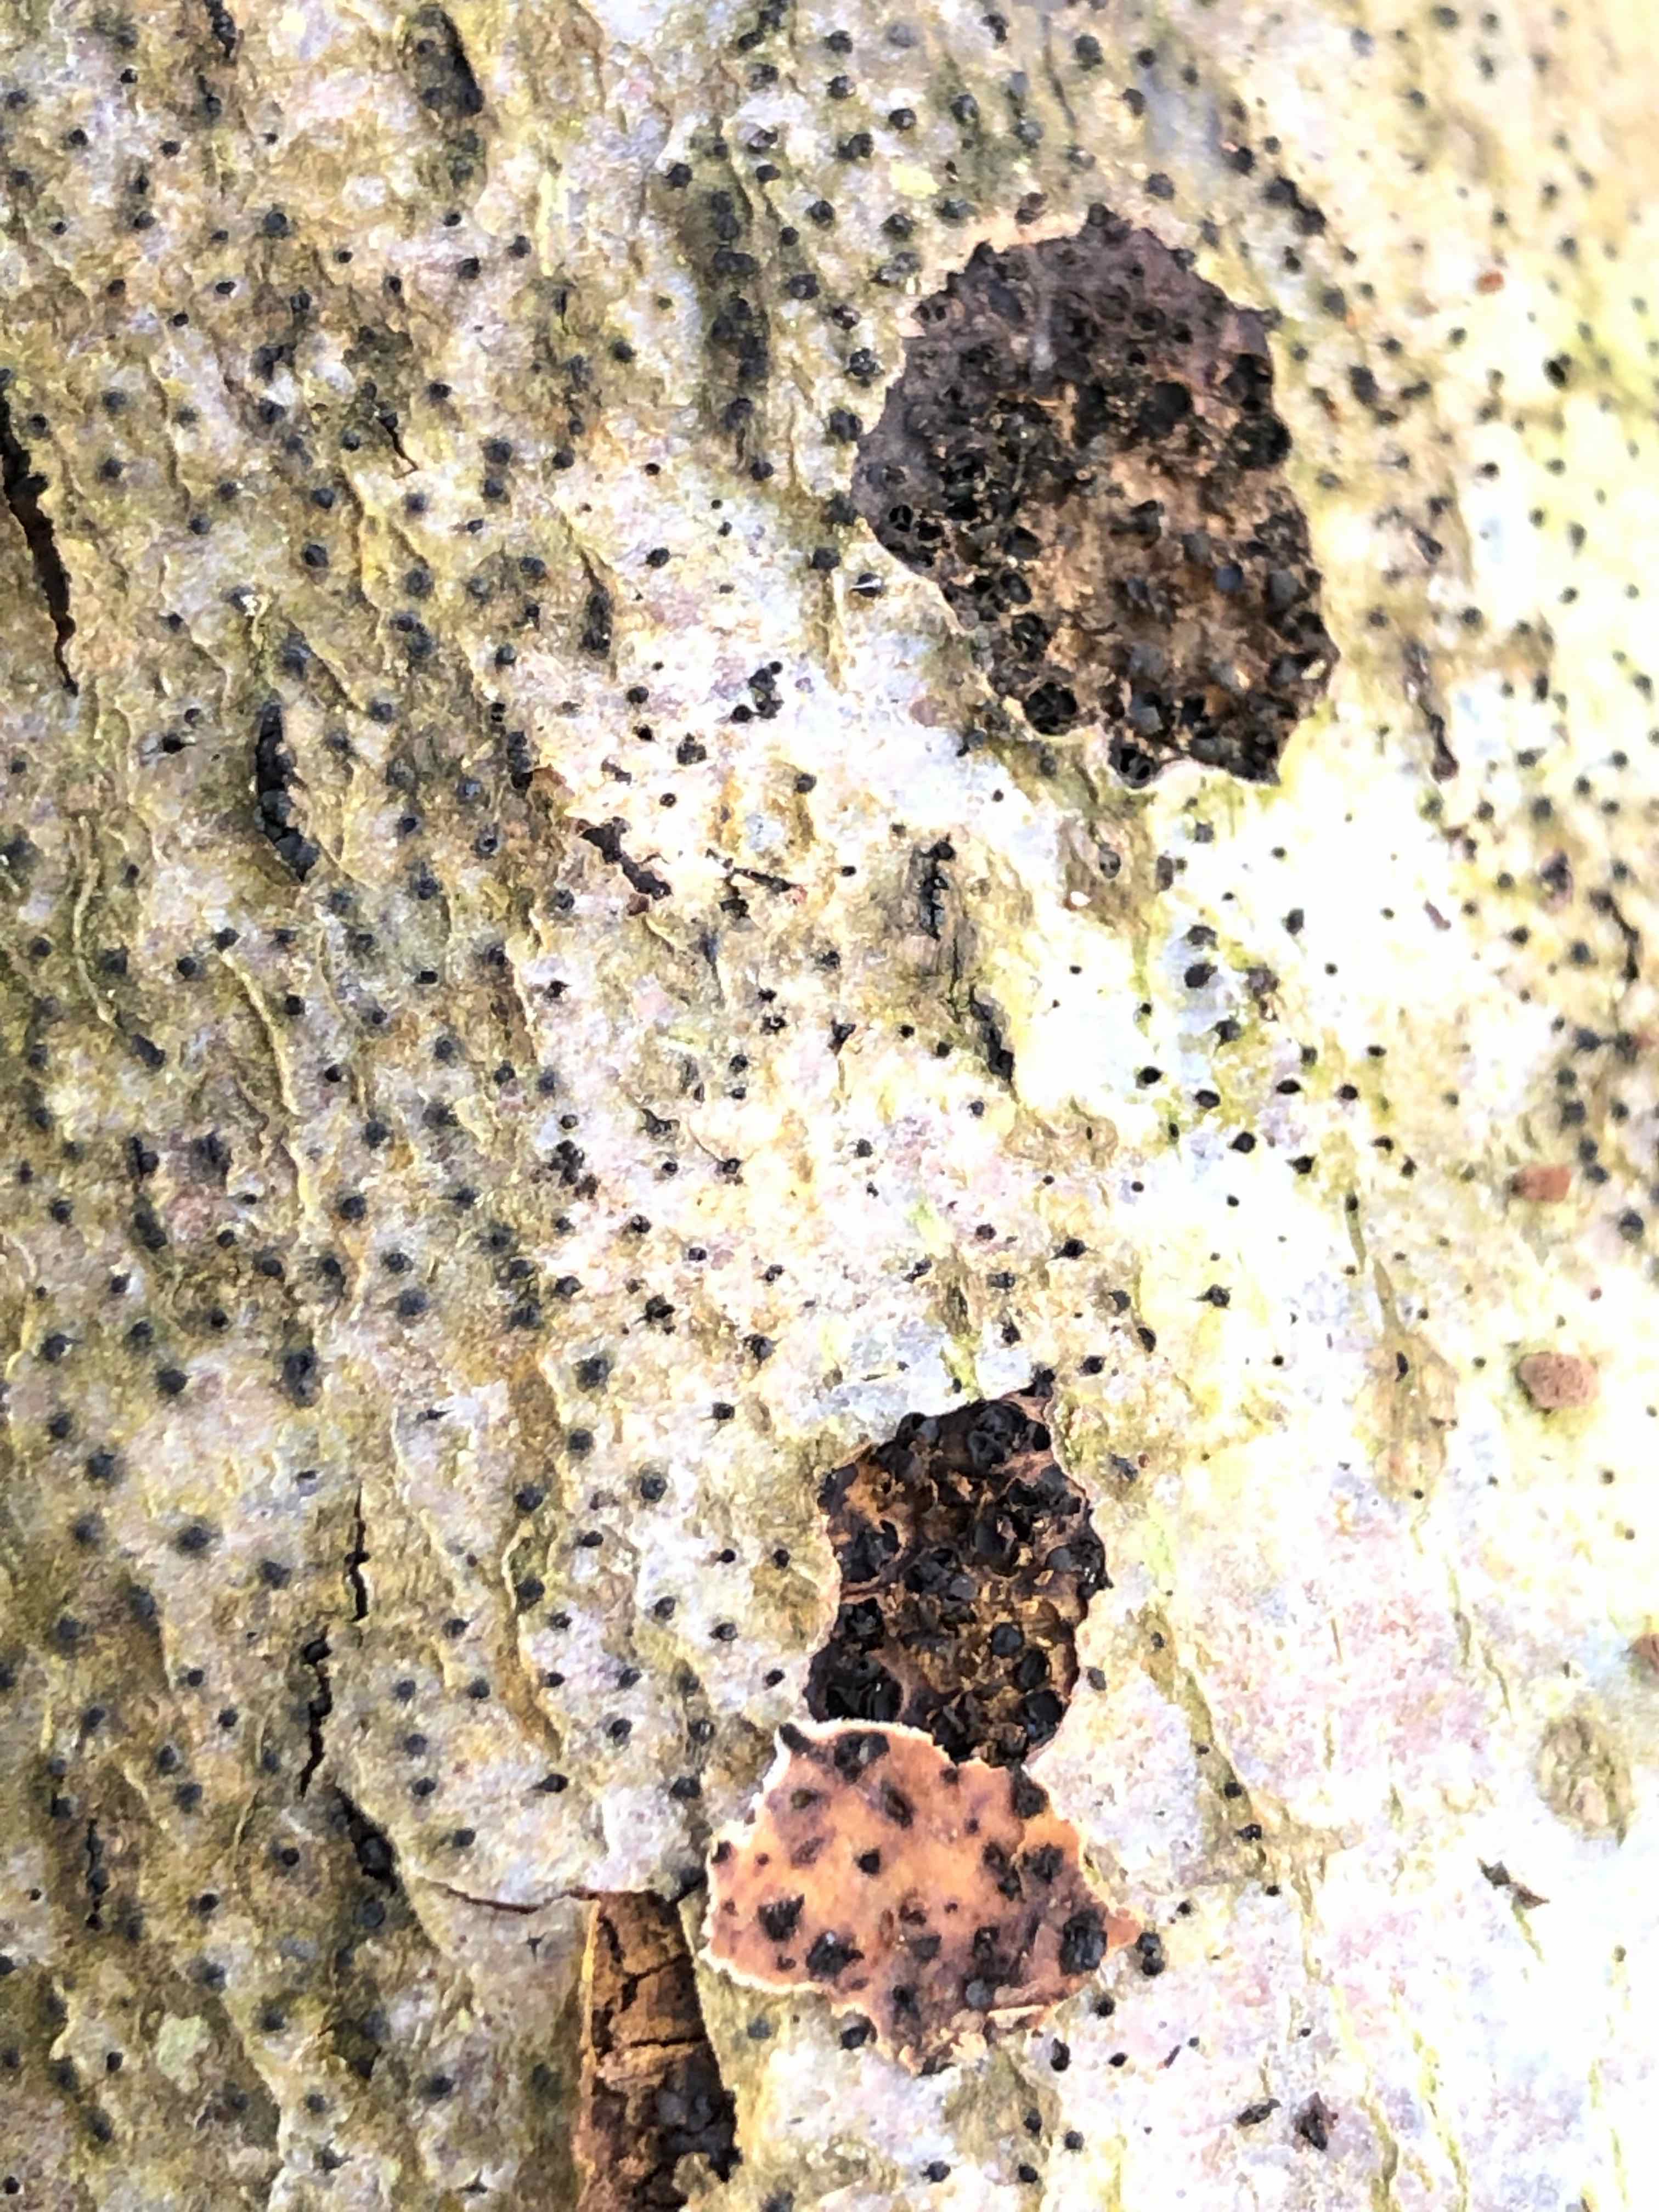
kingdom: Fungi
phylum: Ascomycota
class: Sordariomycetes
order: Xylariales
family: Diatrypaceae
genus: Eutypella
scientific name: Eutypella quaternata
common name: bøge-korsprik
